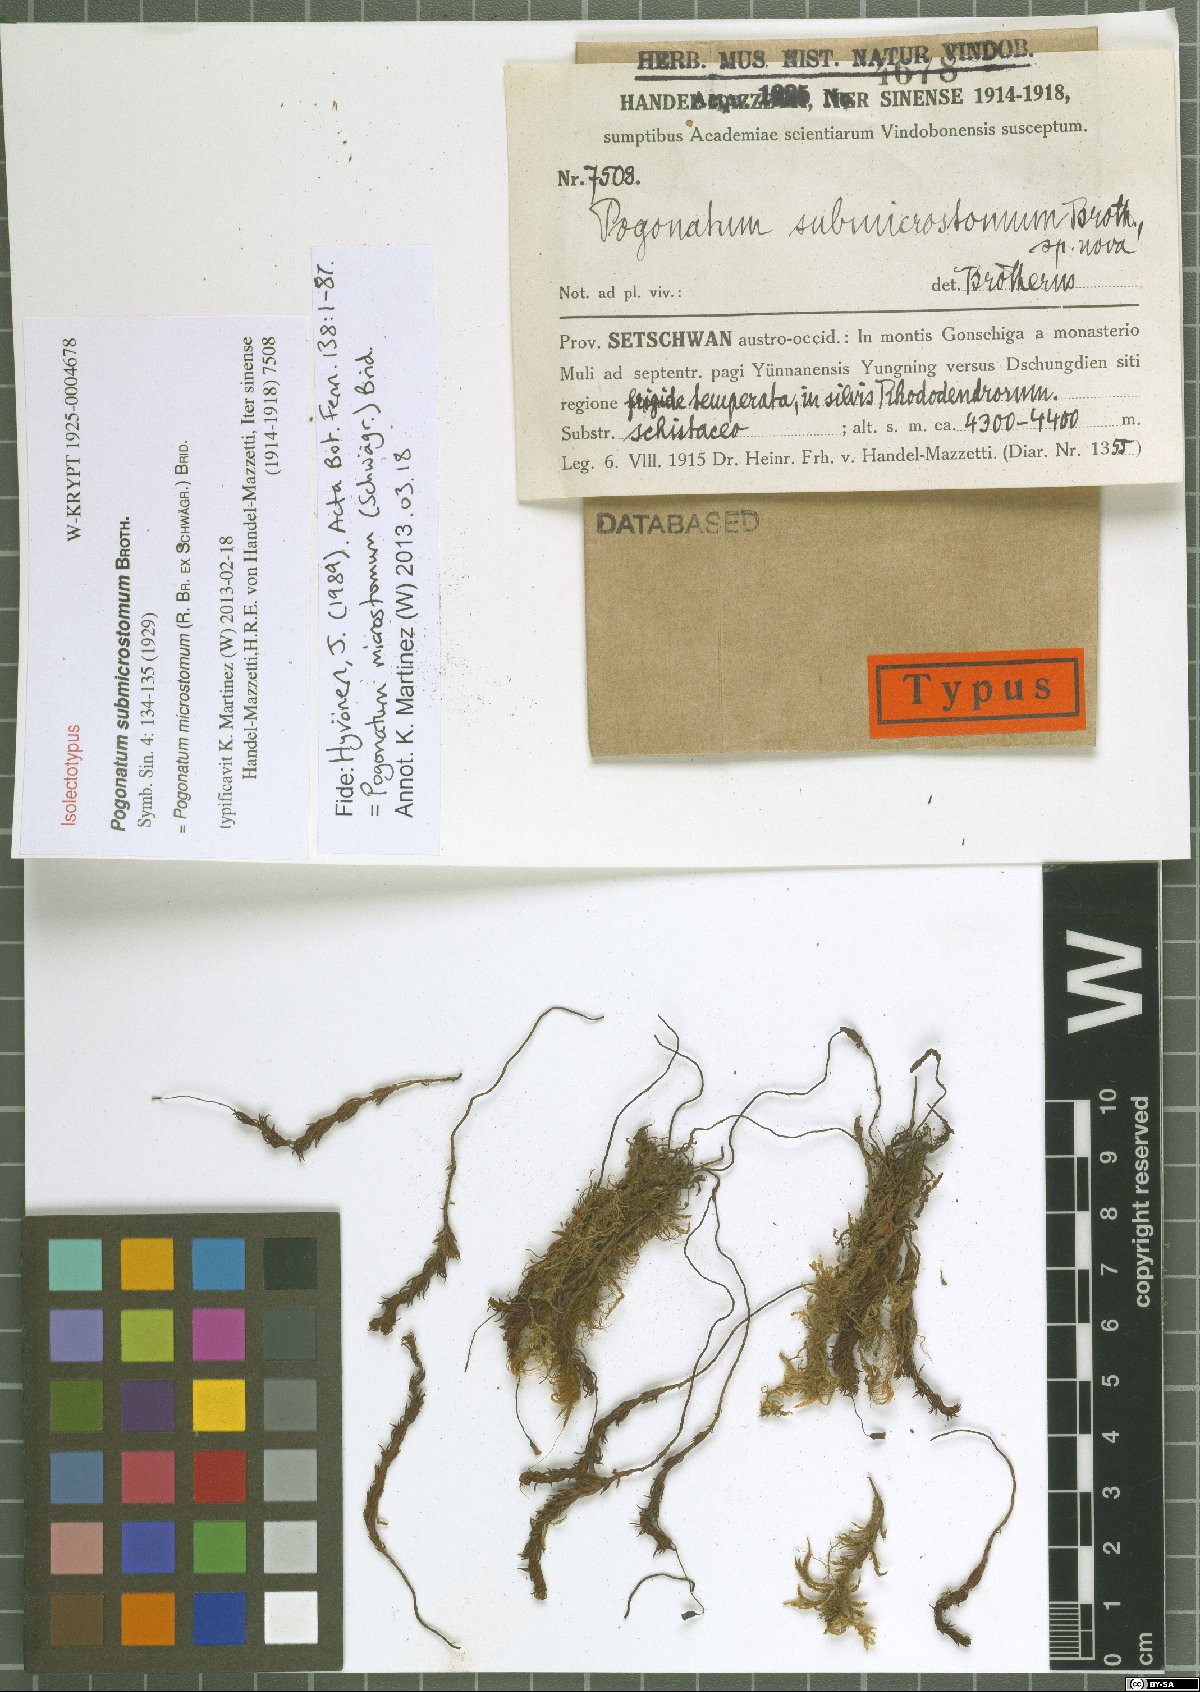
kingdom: Plantae
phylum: Bryophyta
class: Polytrichopsida
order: Polytrichales
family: Polytrichaceae
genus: Pogonatum
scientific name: Pogonatum microstomum
